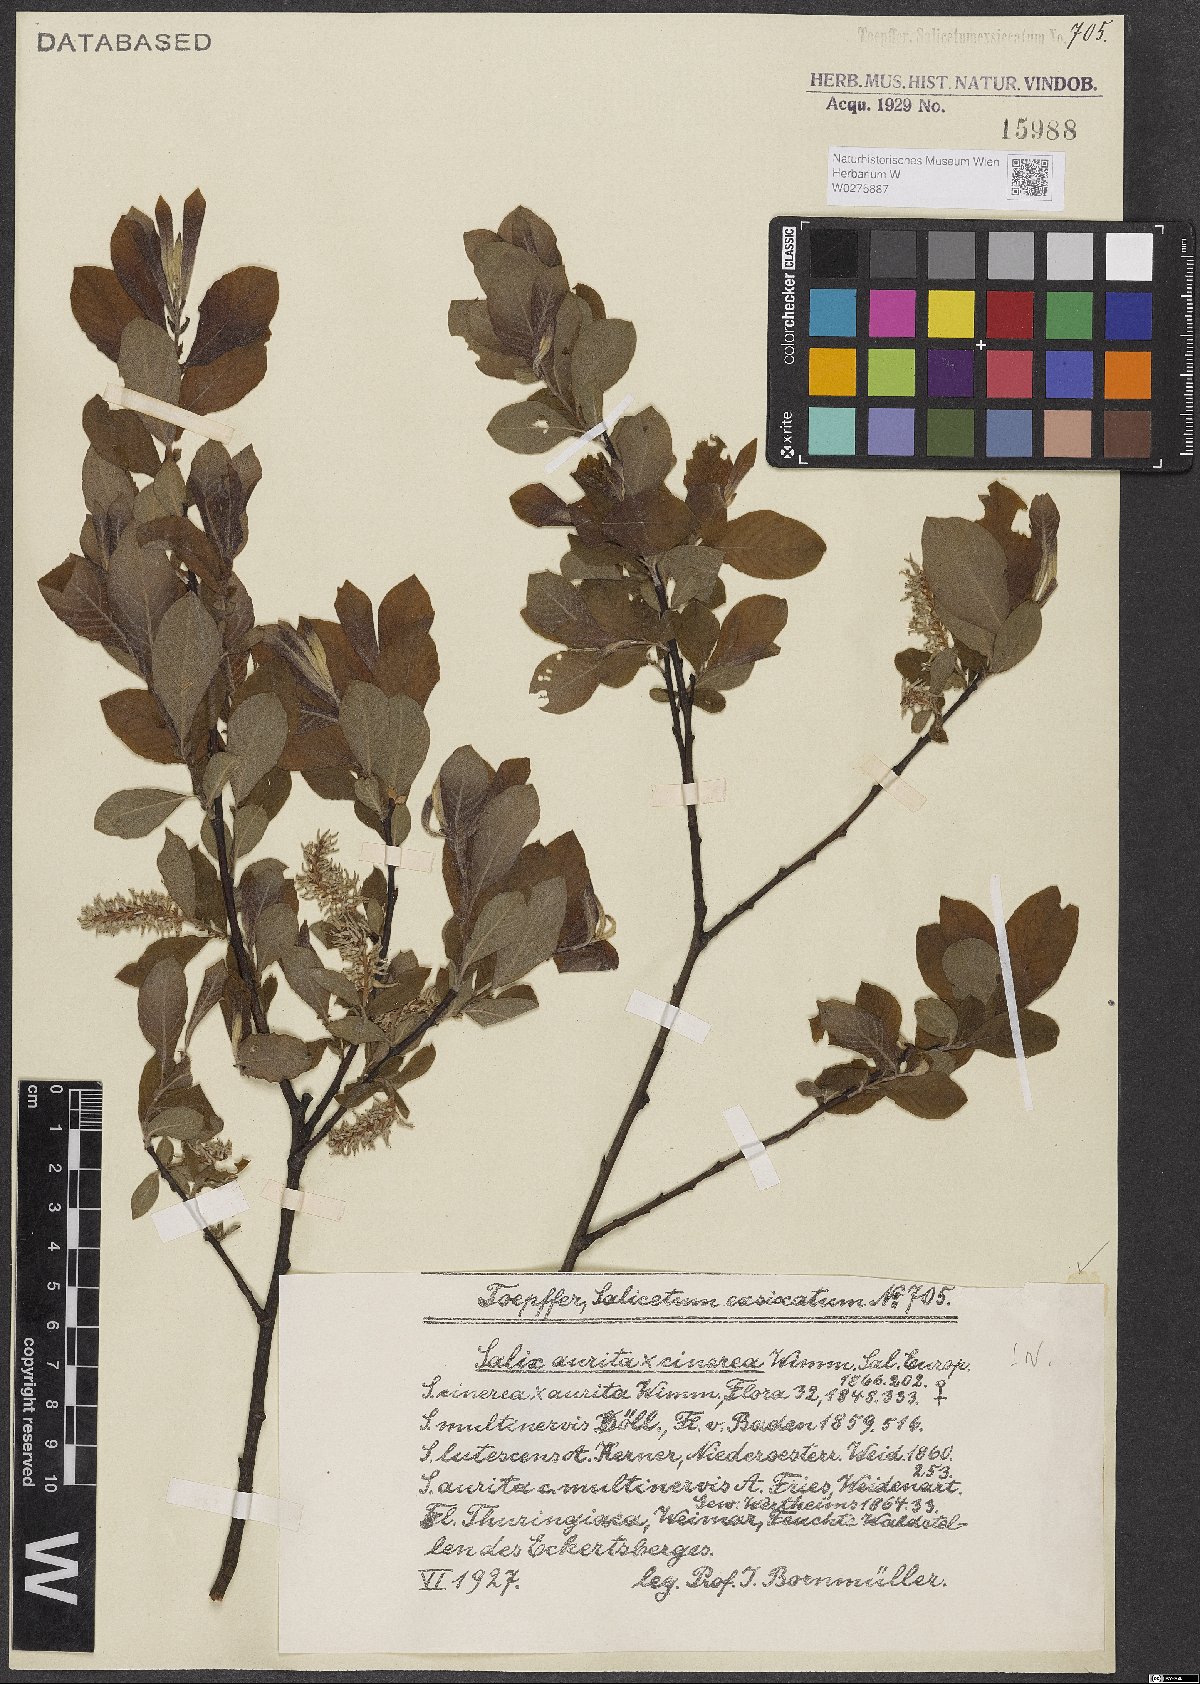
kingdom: Plantae
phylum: Tracheophyta
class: Magnoliopsida
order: Malpighiales
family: Salicaceae
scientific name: Salicaceae
